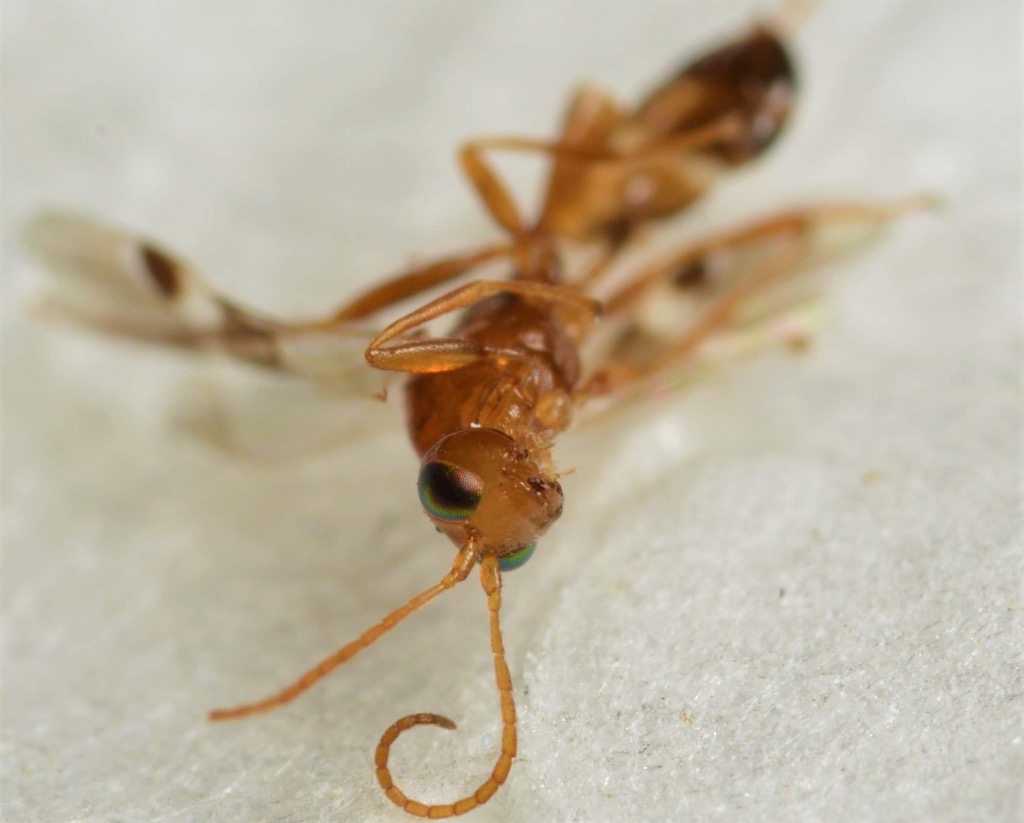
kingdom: Animalia
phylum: Arthropoda
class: Insecta
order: Hymenoptera
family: Braconidae
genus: Leiophron
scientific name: Leiophron fascipennis
